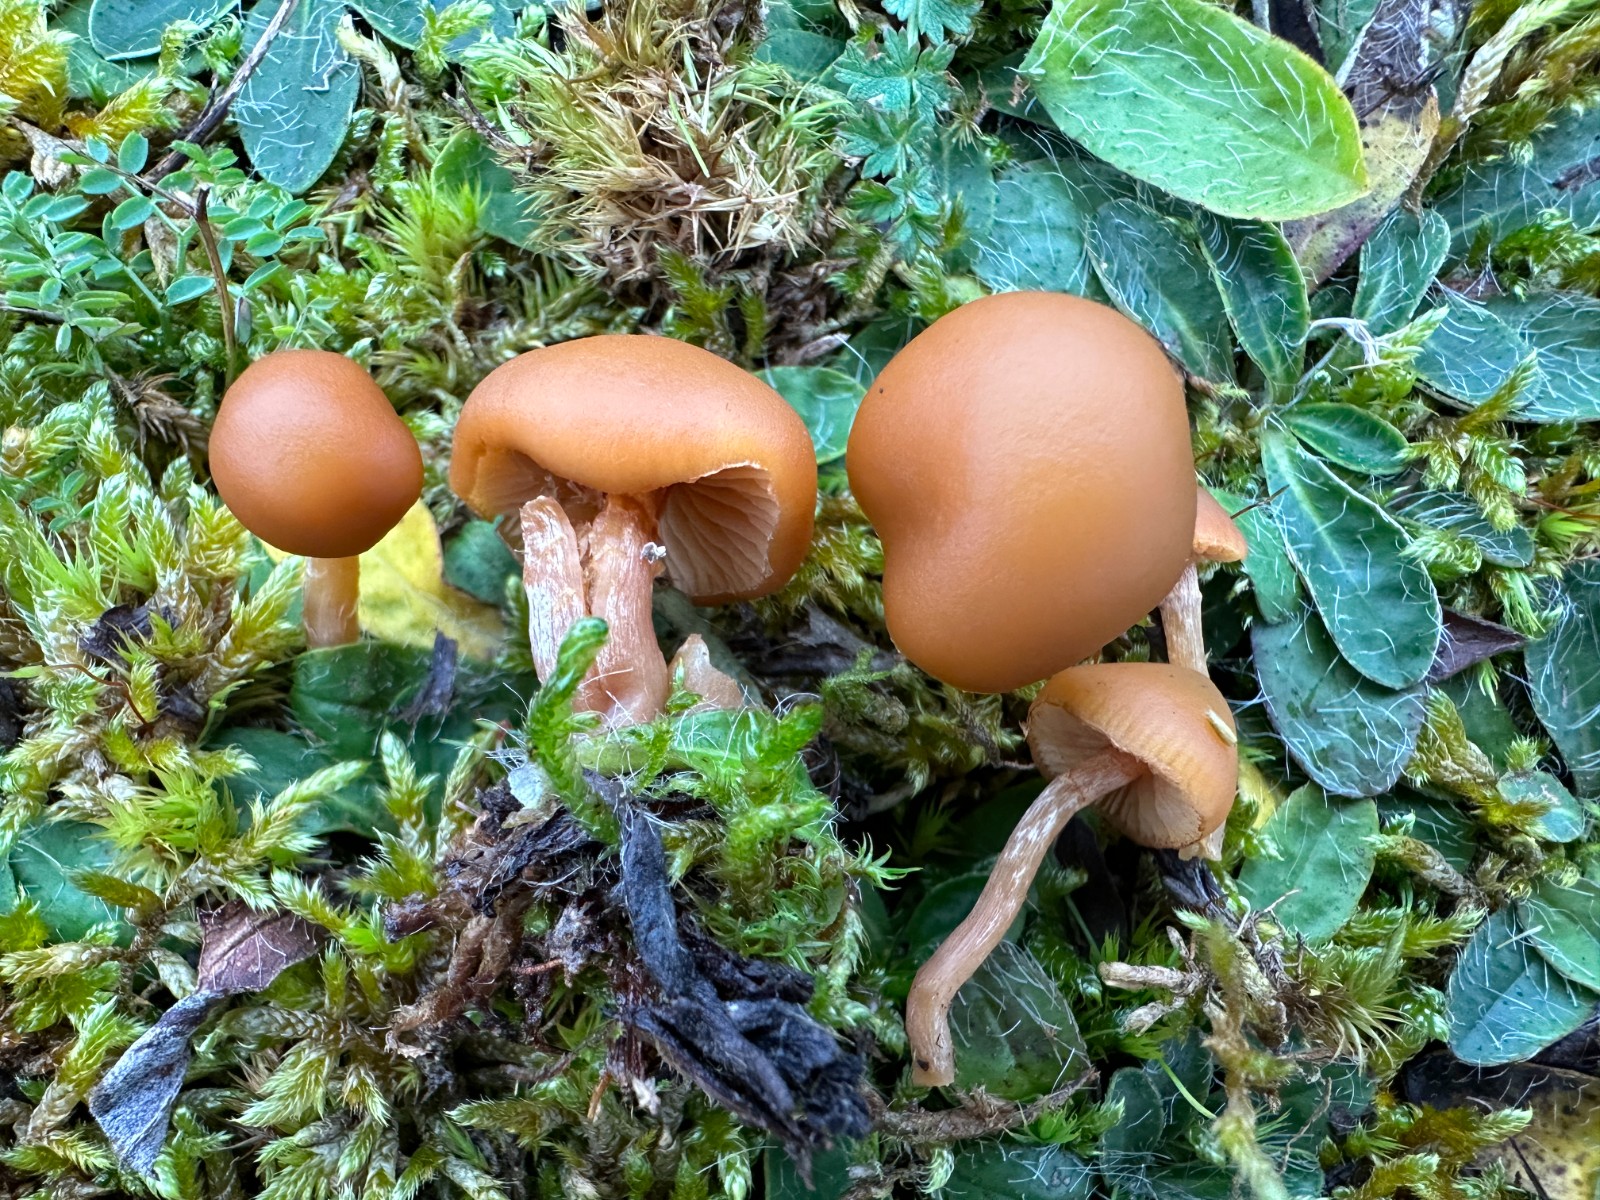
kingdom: Fungi
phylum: Basidiomycota
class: Agaricomycetes
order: Agaricales
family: Hymenogastraceae
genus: Galerina
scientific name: Galerina
